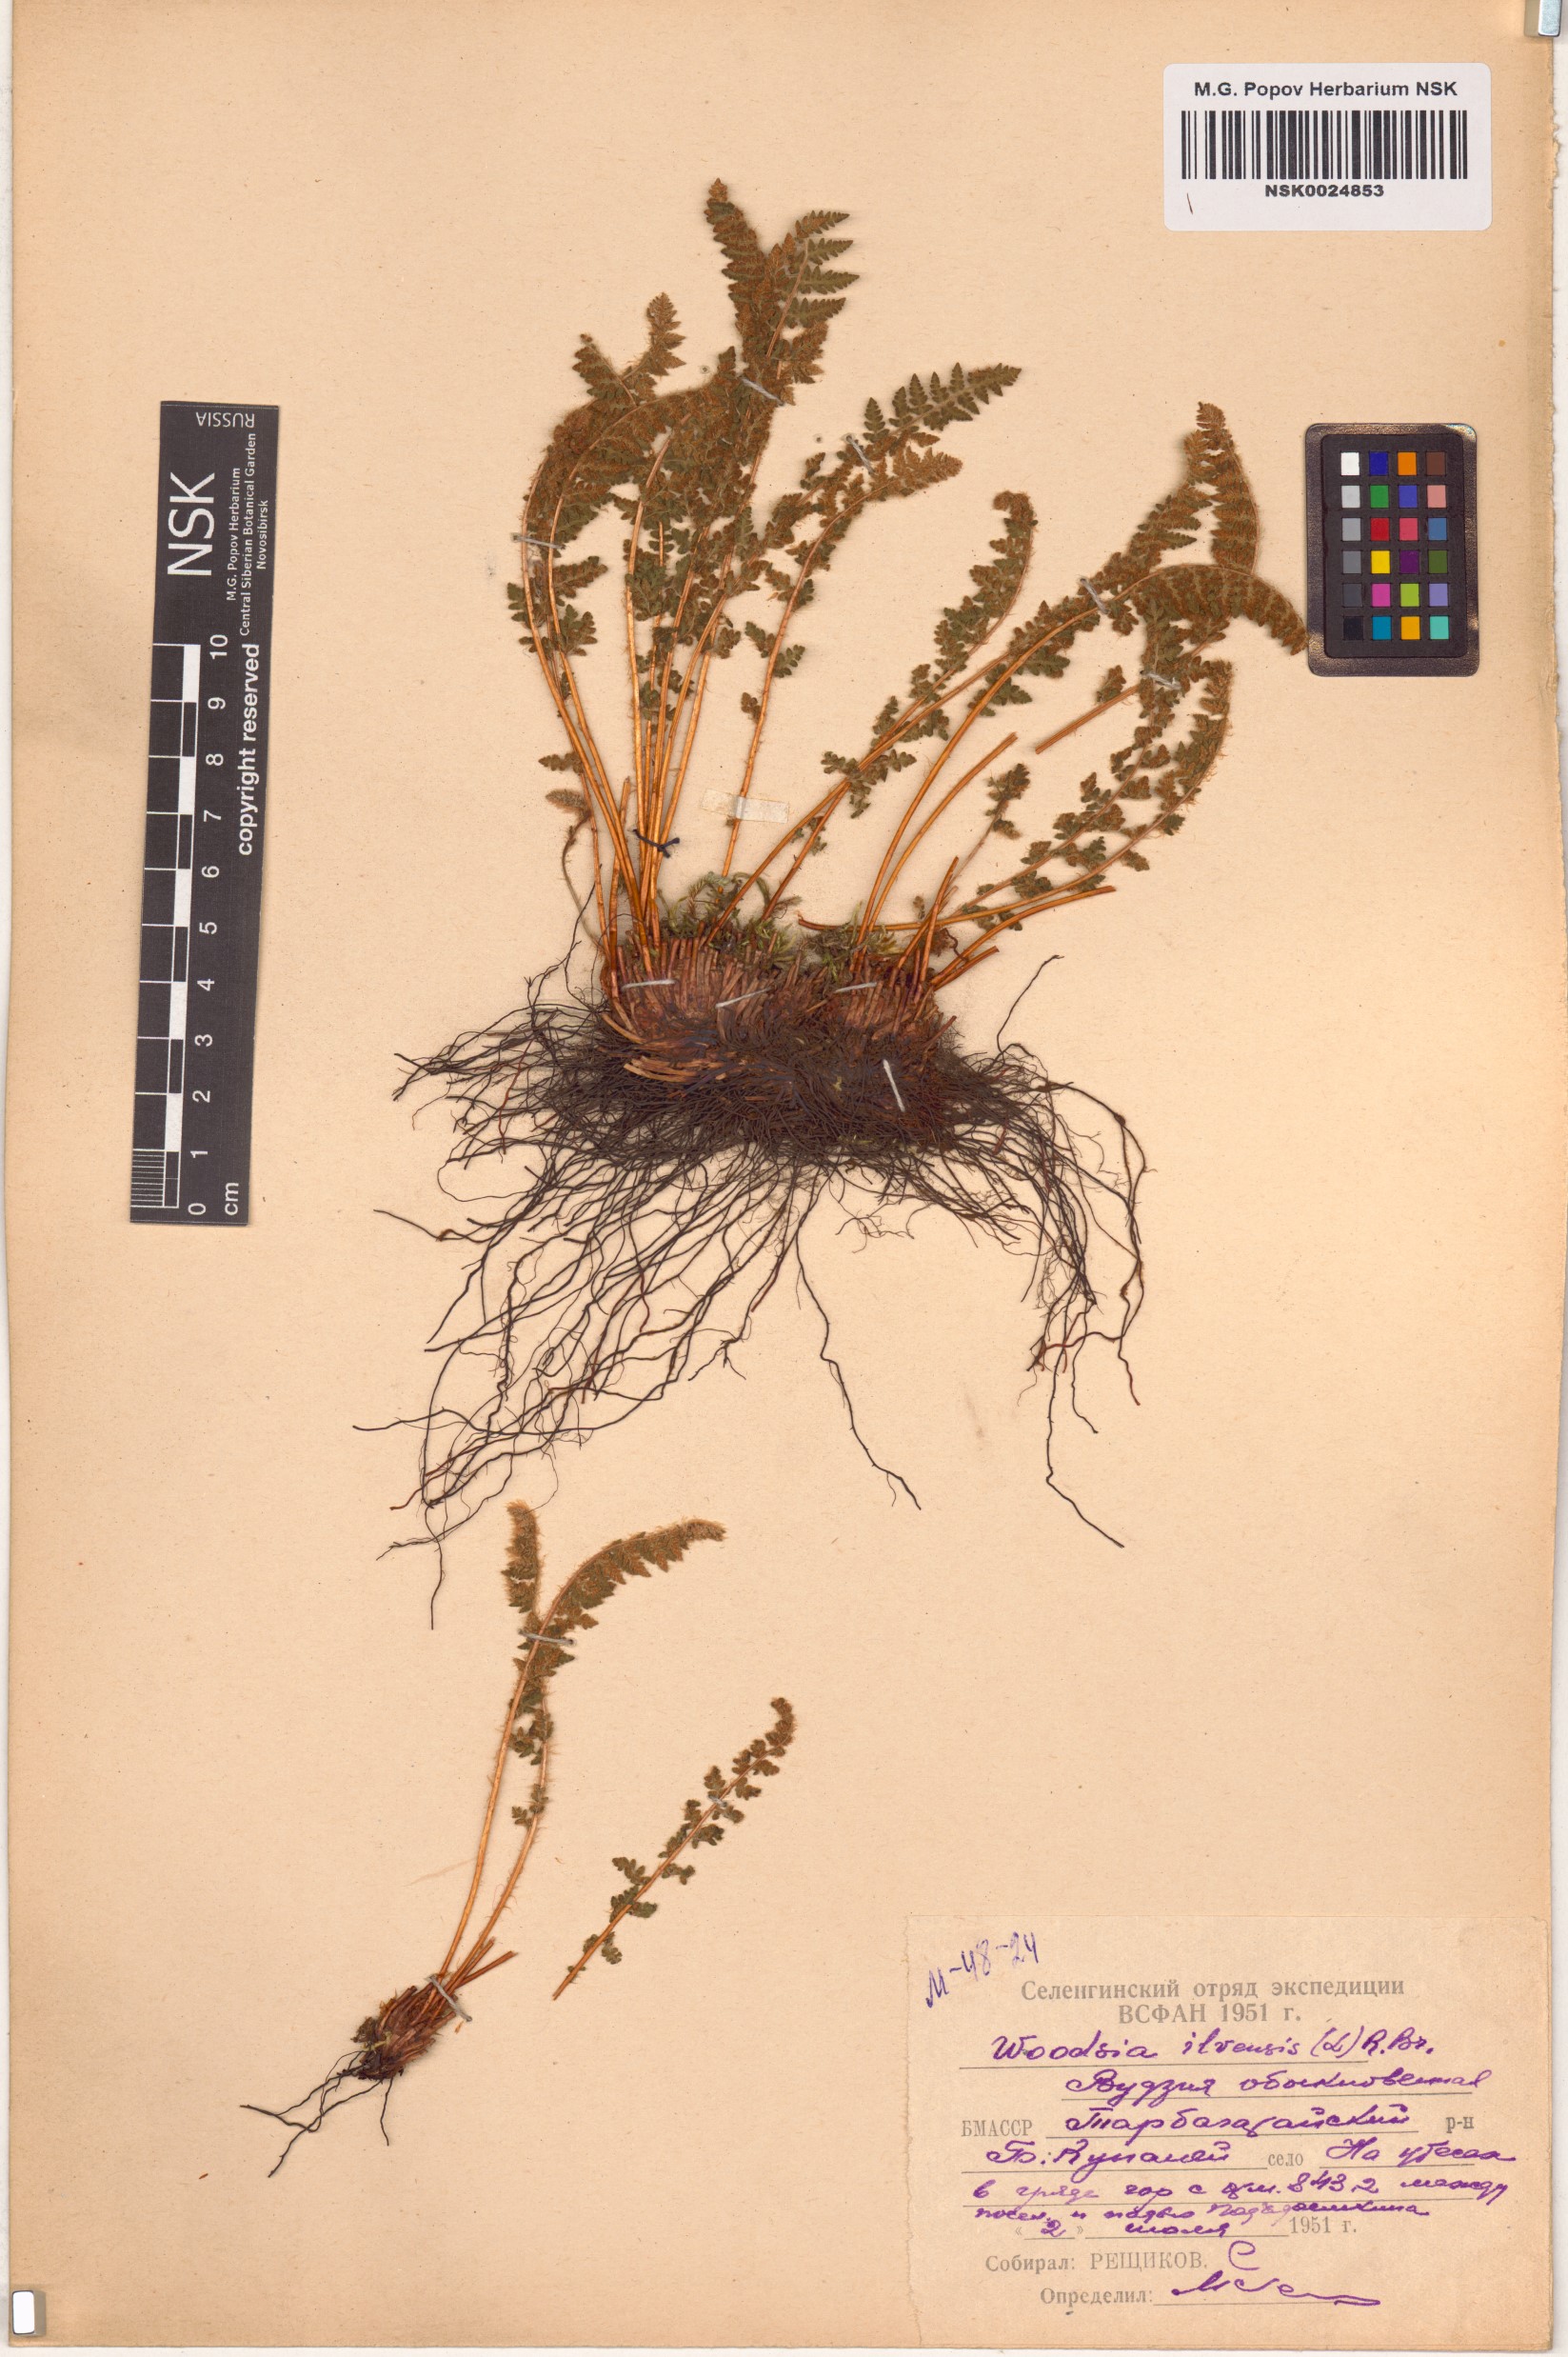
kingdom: Plantae
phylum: Tracheophyta
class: Polypodiopsida
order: Polypodiales
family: Woodsiaceae
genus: Woodsia
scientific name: Woodsia ilvensis
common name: Fragrant woodsia
